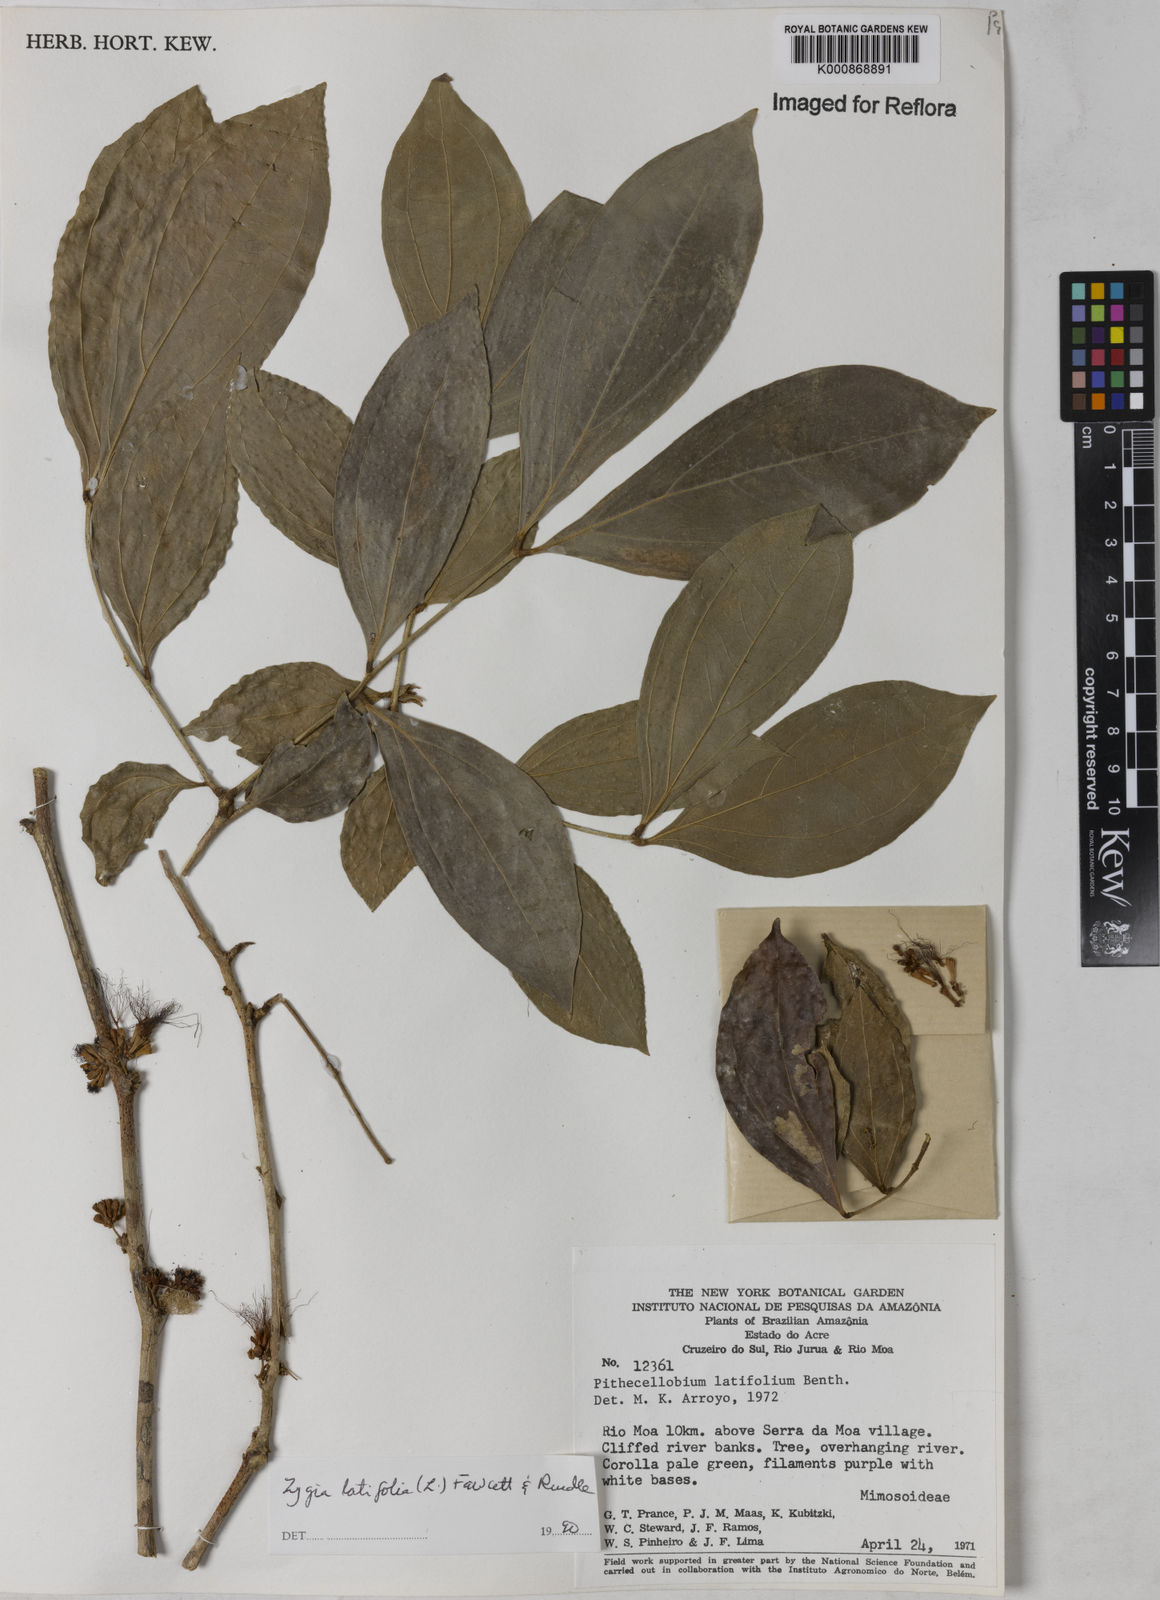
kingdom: Plantae
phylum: Tracheophyta
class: Magnoliopsida
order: Fabales
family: Fabaceae
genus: Zygia
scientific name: Zygia latifolia
